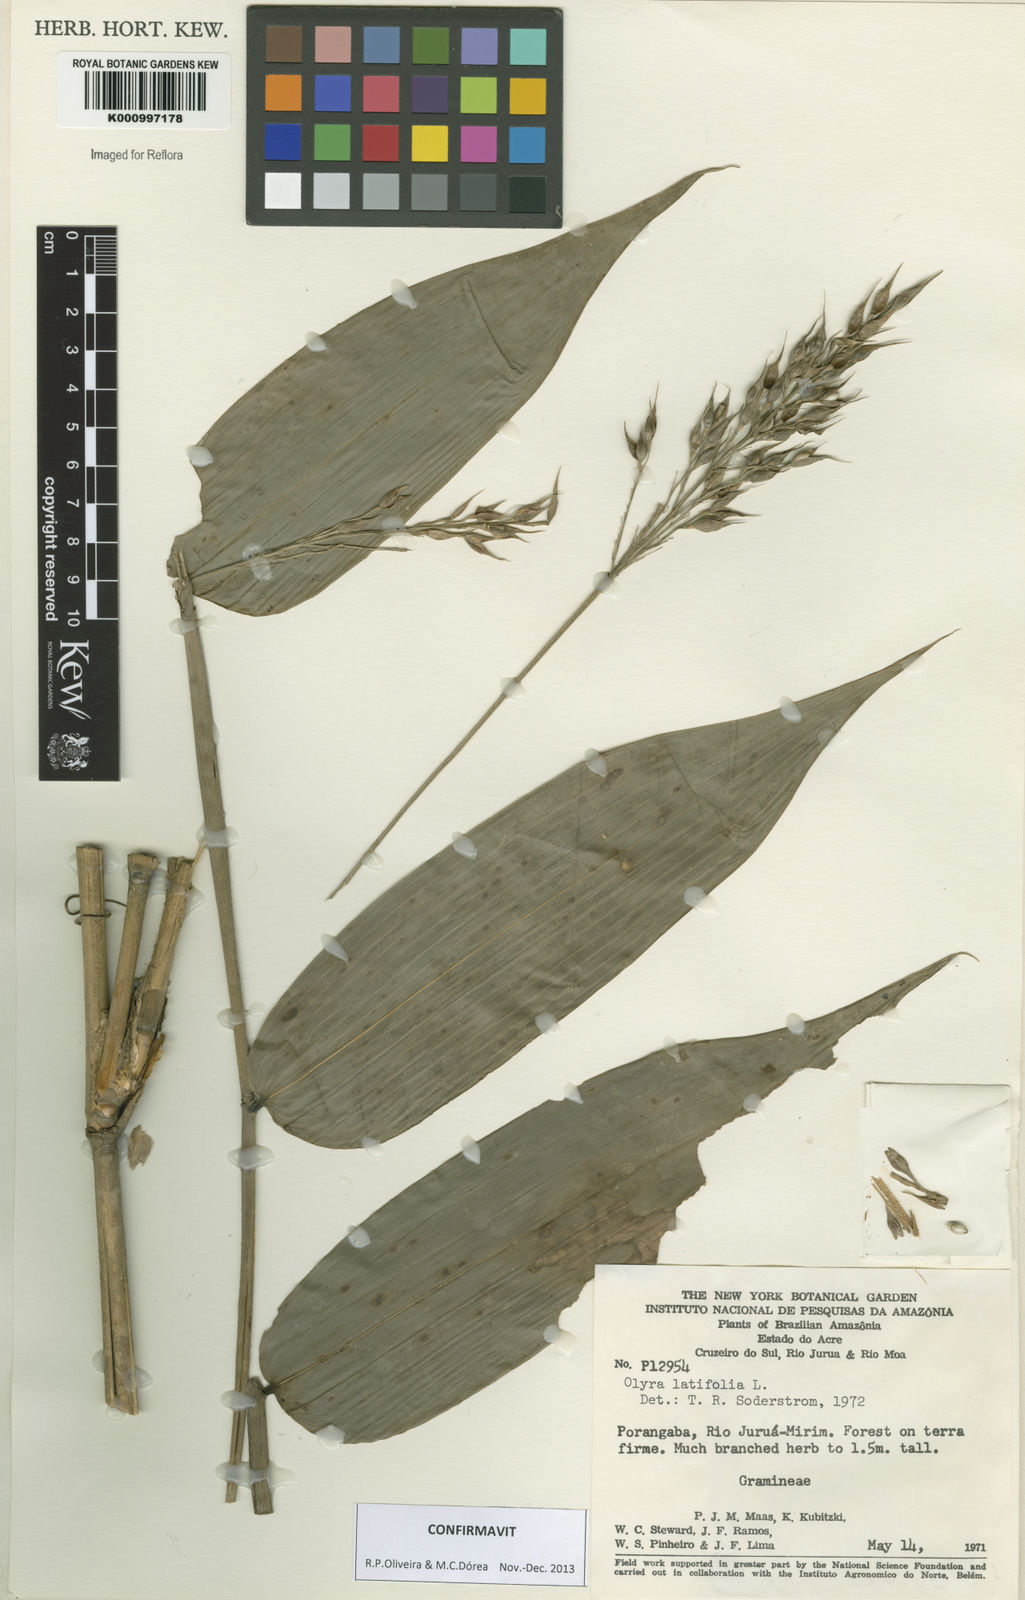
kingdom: Plantae
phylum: Tracheophyta
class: Liliopsida
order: Poales
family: Poaceae
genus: Olyra
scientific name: Olyra latifolia
